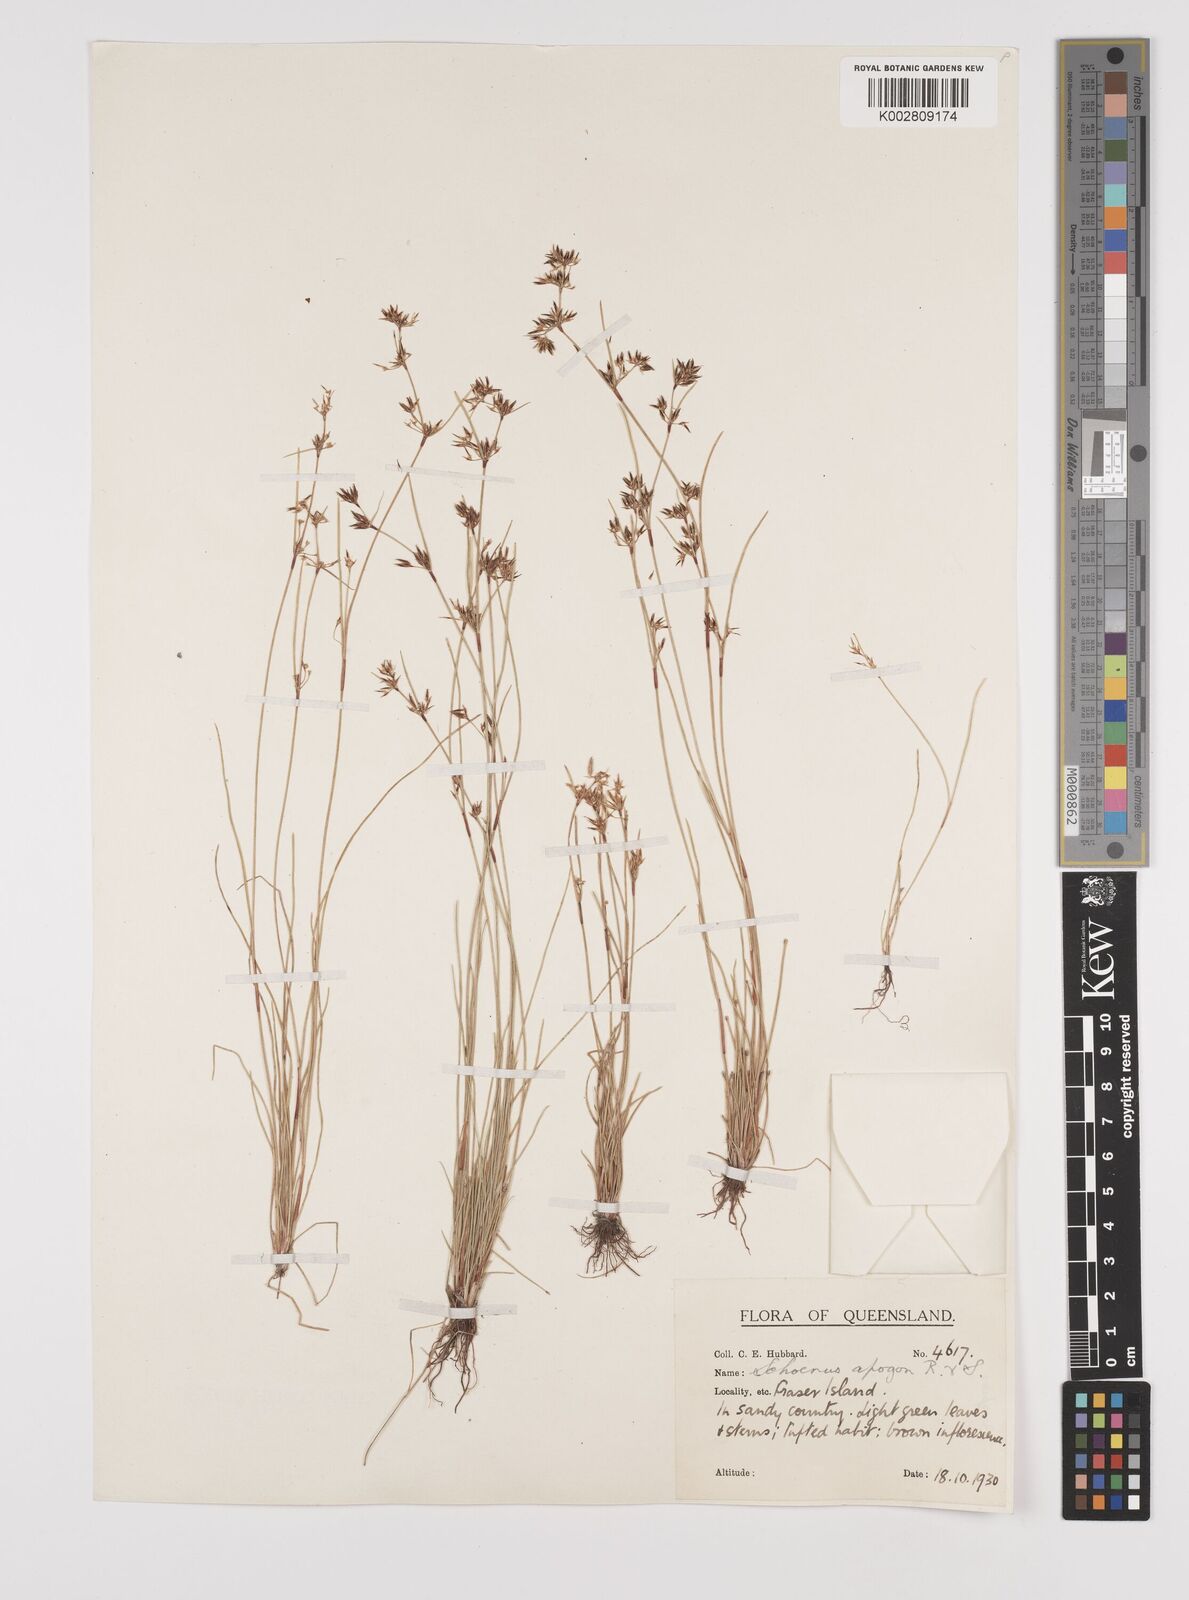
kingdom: Plantae
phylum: Tracheophyta
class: Liliopsida
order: Poales
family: Cyperaceae
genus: Schoenus
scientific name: Schoenus apogon
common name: Smooth bogrush
